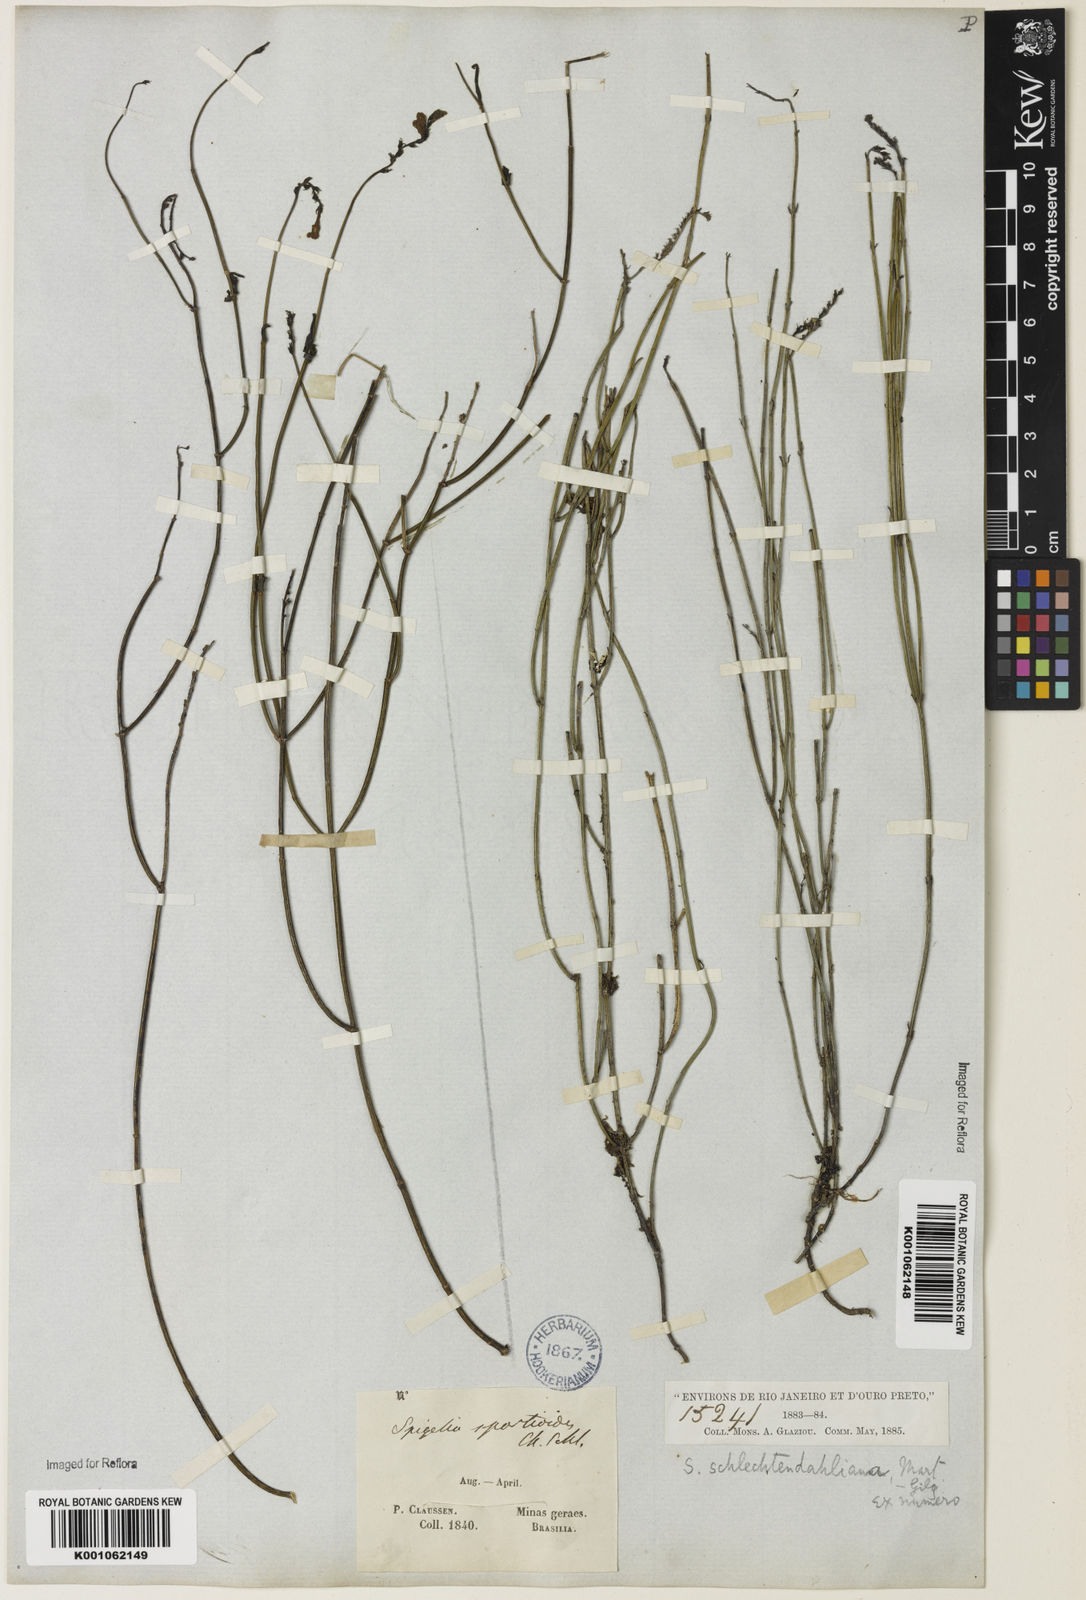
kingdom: Plantae
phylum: Tracheophyta
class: Magnoliopsida
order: Gentianales
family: Loganiaceae
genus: Spigelia
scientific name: Spigelia spartioides
